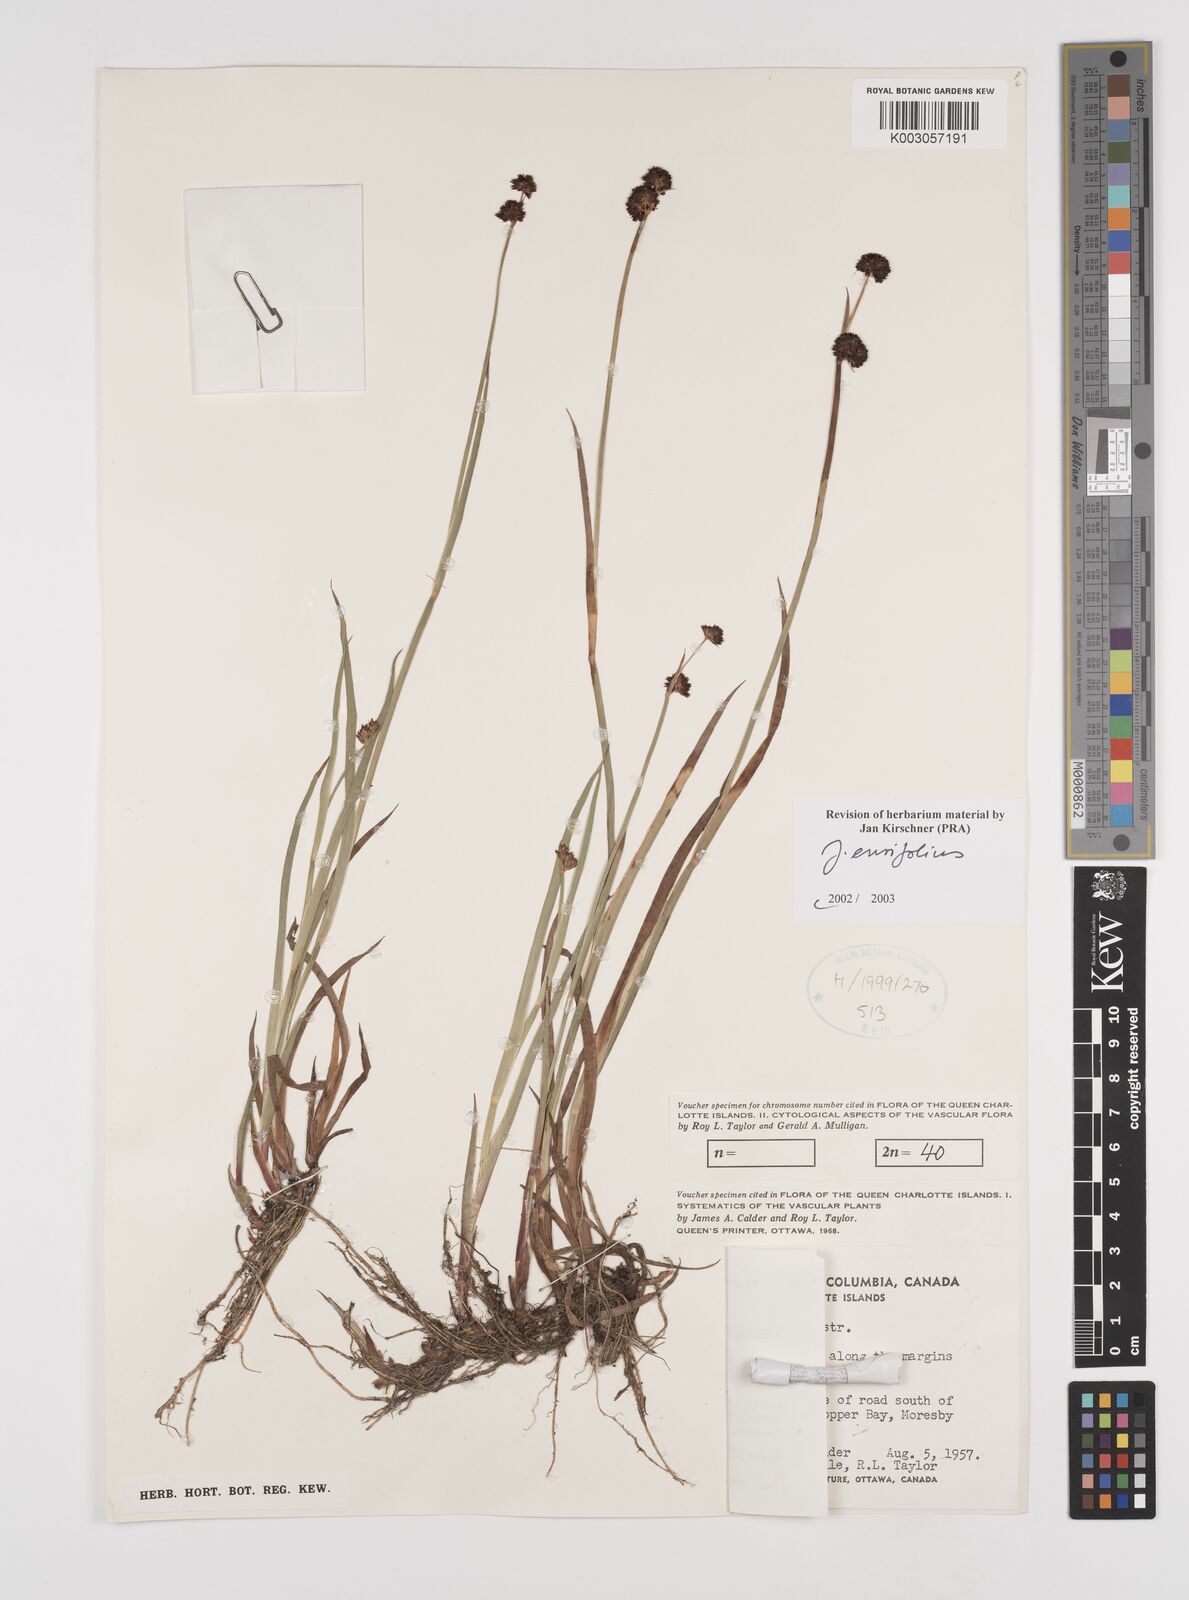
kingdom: Plantae
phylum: Tracheophyta
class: Liliopsida
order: Poales
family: Juncaceae
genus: Juncus
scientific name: Juncus ensifolius
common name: Sword-leaved rush
